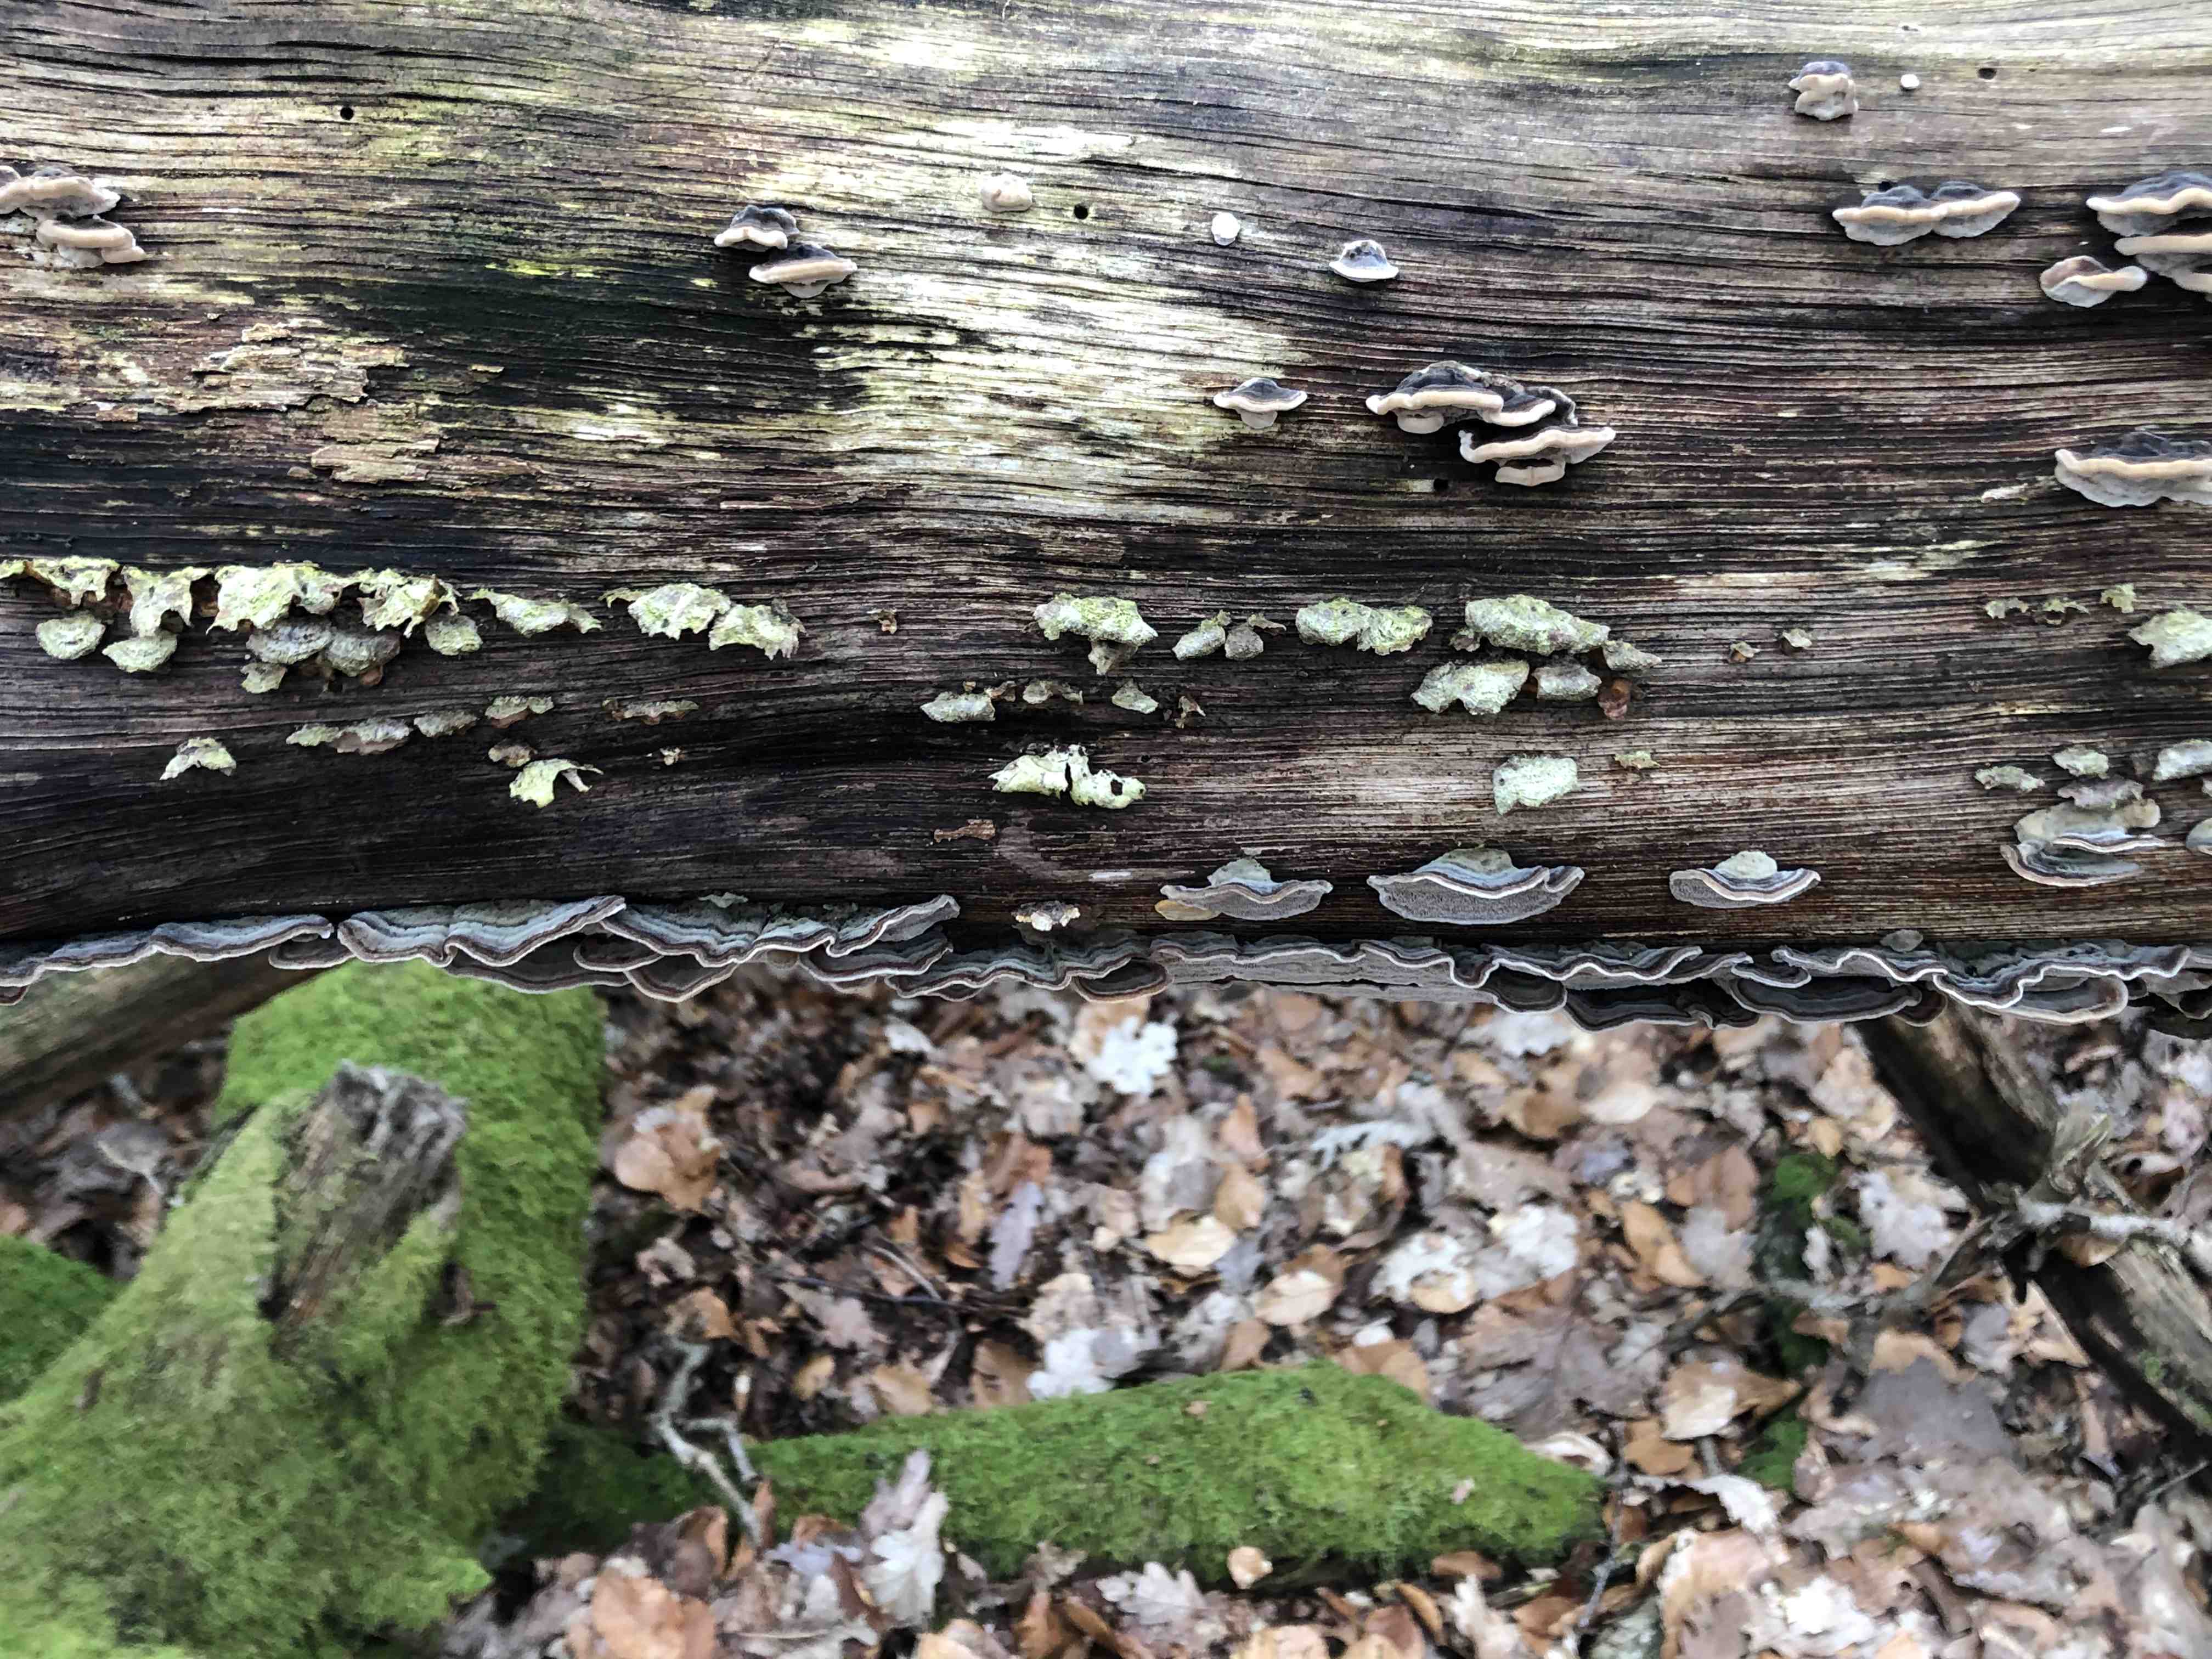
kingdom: Fungi
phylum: Basidiomycota
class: Agaricomycetes
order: Polyporales
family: Phanerochaetaceae
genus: Bjerkandera
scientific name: Bjerkandera adusta
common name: sveden sodporesvamp
